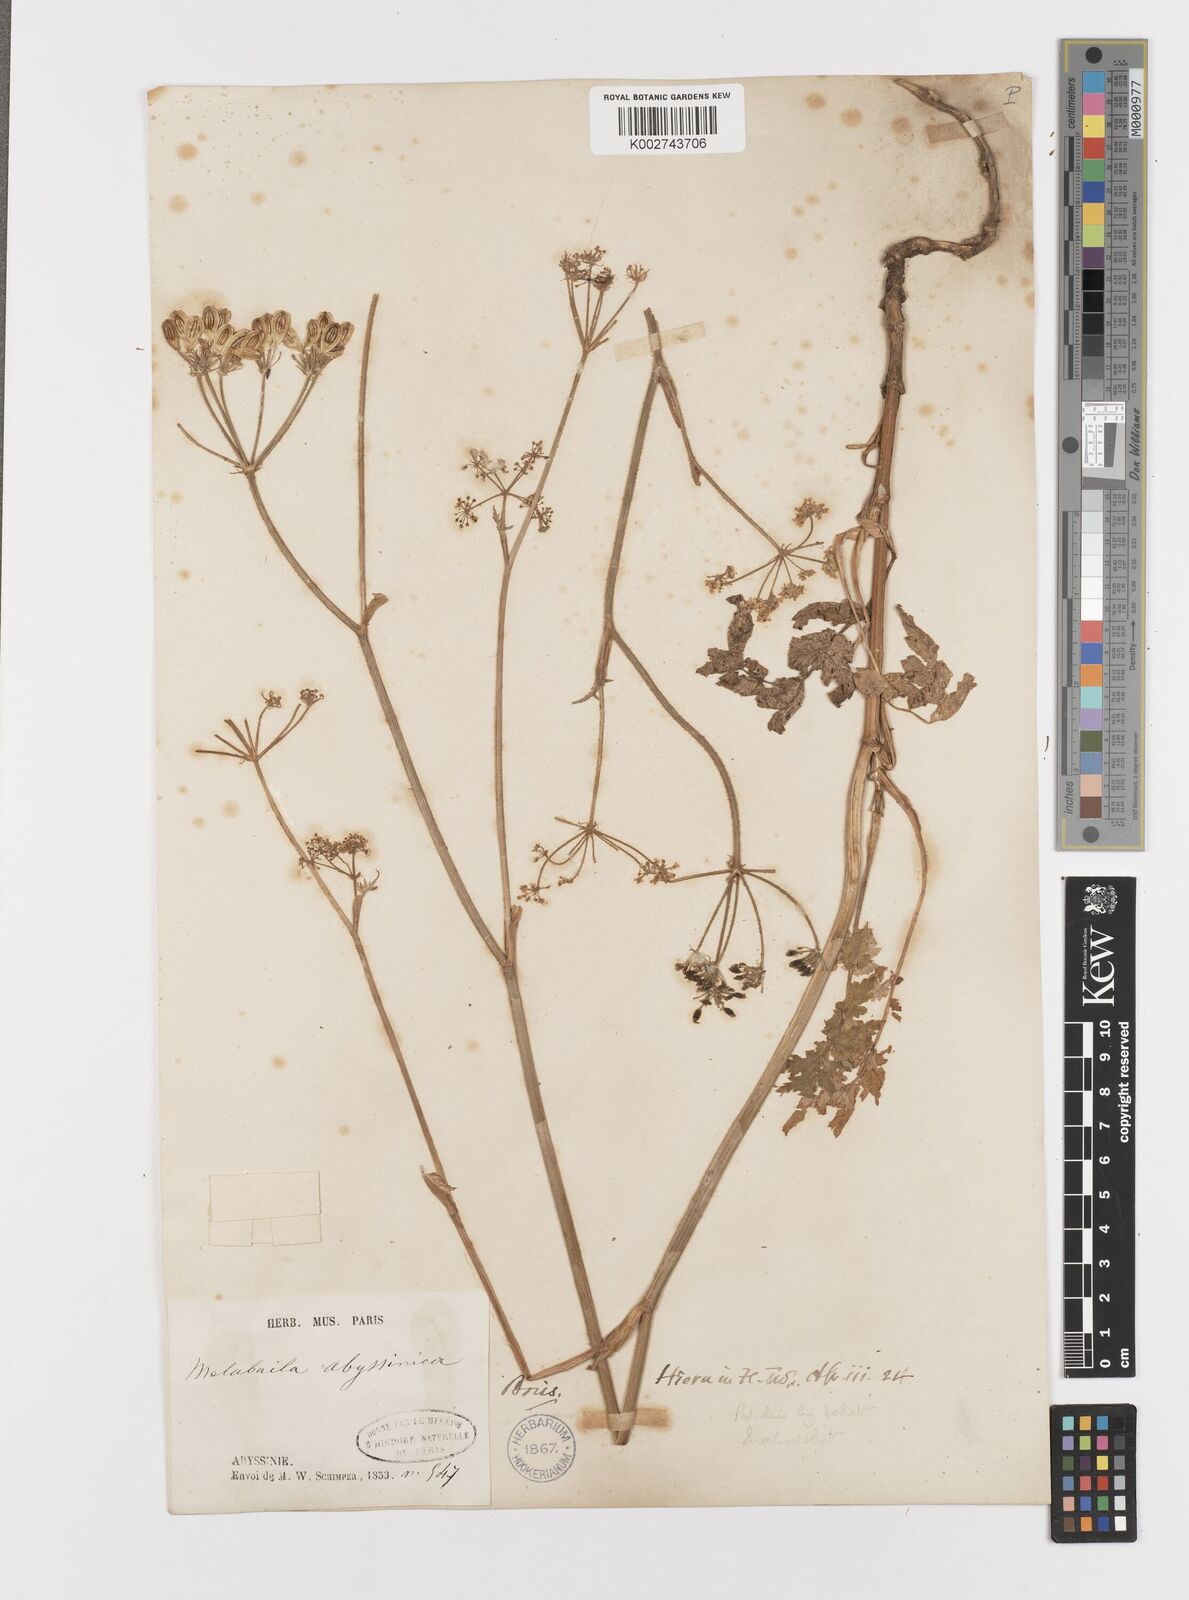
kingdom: Plantae
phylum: Tracheophyta
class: Magnoliopsida
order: Apiales
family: Apiaceae
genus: Heracleum
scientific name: Heracleum abyssinicum
